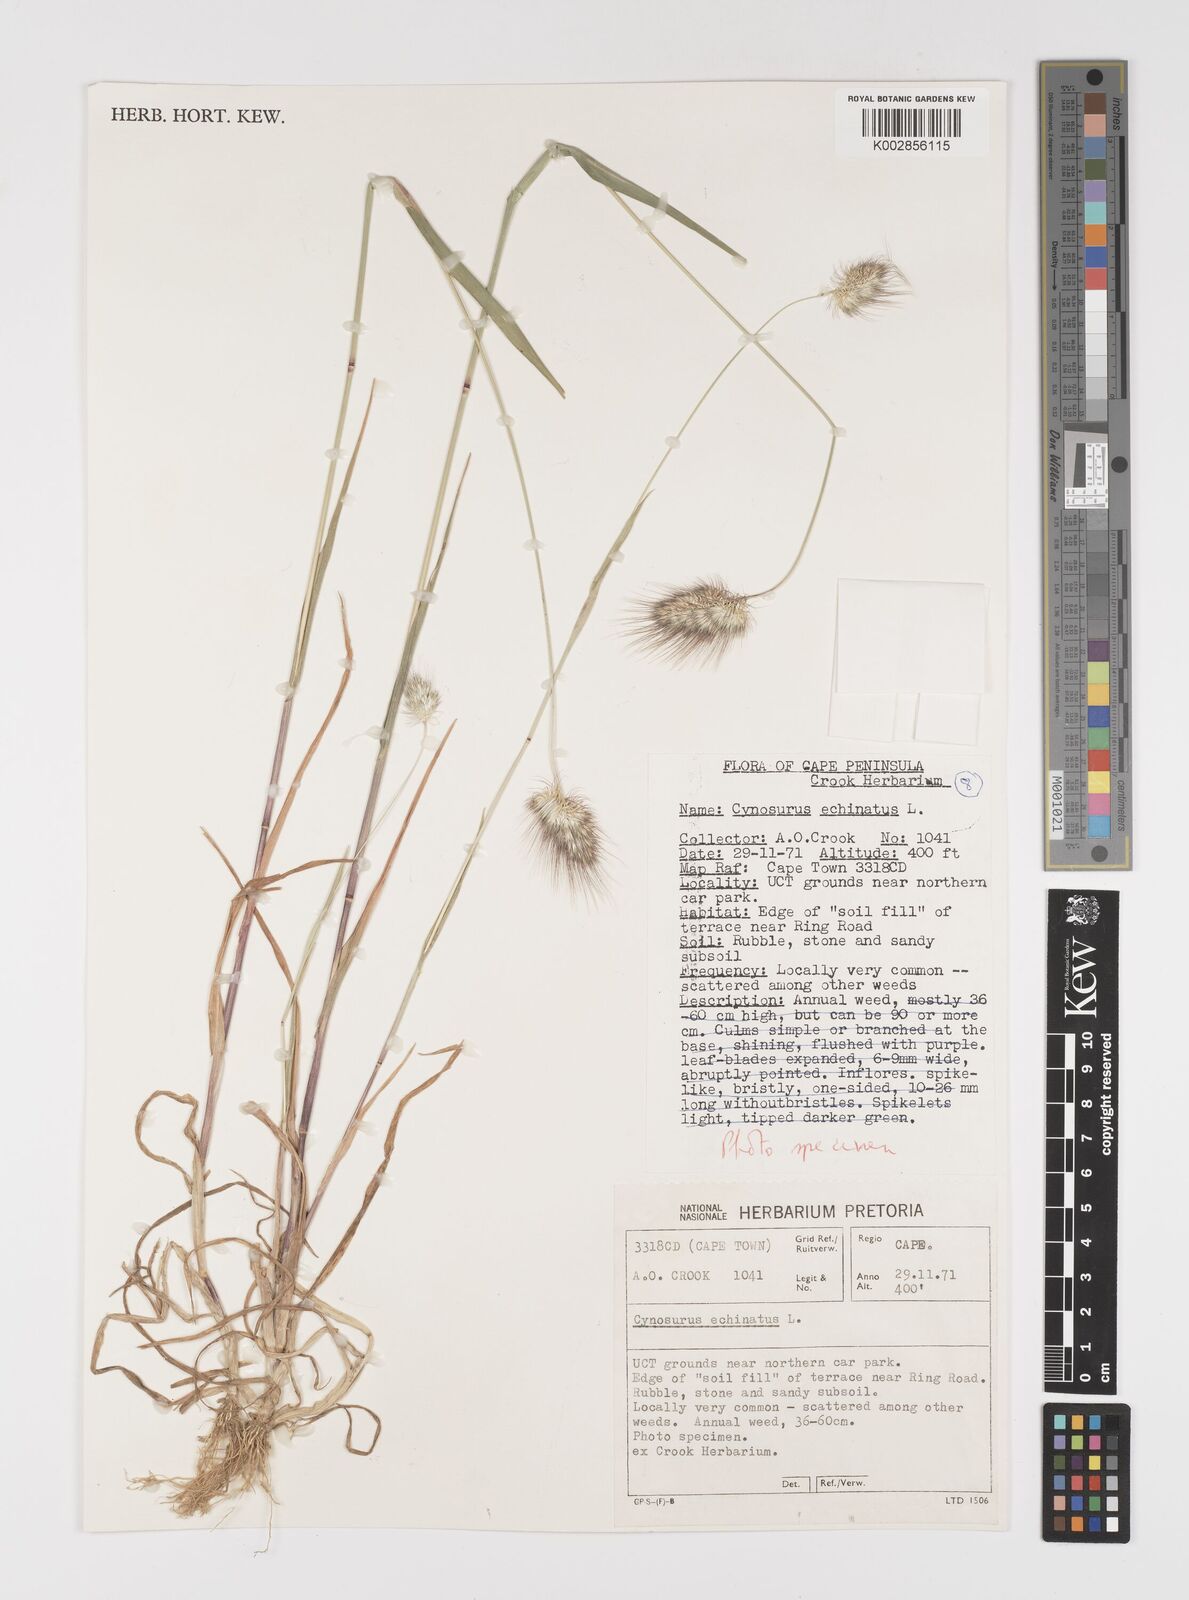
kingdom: Plantae
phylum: Tracheophyta
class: Liliopsida
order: Poales
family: Poaceae
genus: Cynosurus
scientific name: Cynosurus echinatus
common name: Rough dog's-tail
